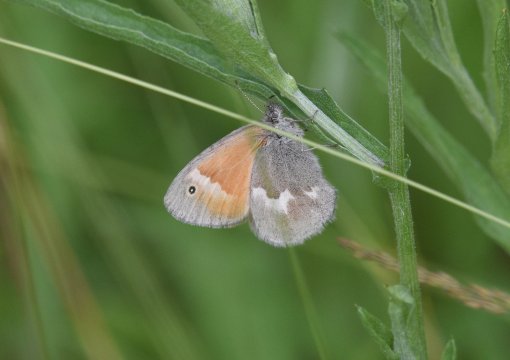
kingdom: Animalia
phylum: Arthropoda
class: Insecta
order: Lepidoptera
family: Nymphalidae
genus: Coenonympha
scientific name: Coenonympha tullia
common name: Large Heath
